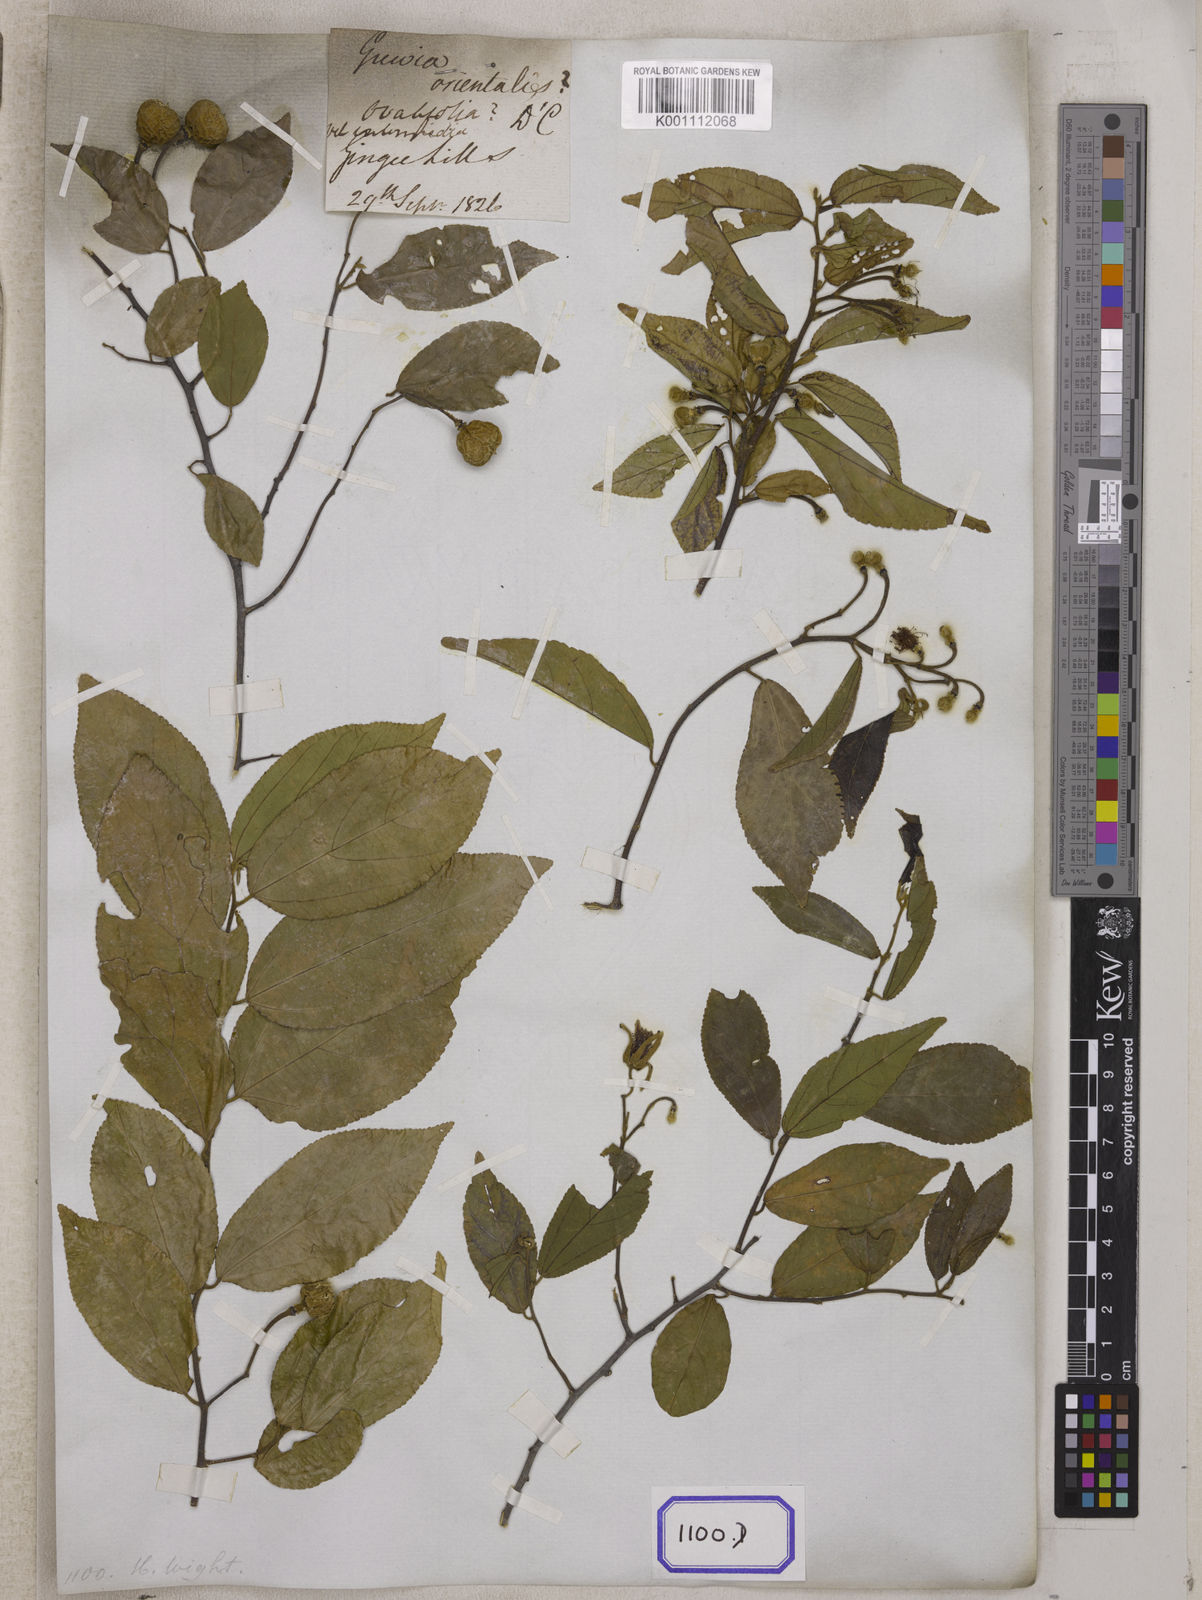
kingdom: Plantae
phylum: Tracheophyta
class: Magnoliopsida
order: Malvales
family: Malvaceae
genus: Grewia
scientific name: Grewia orientalis
